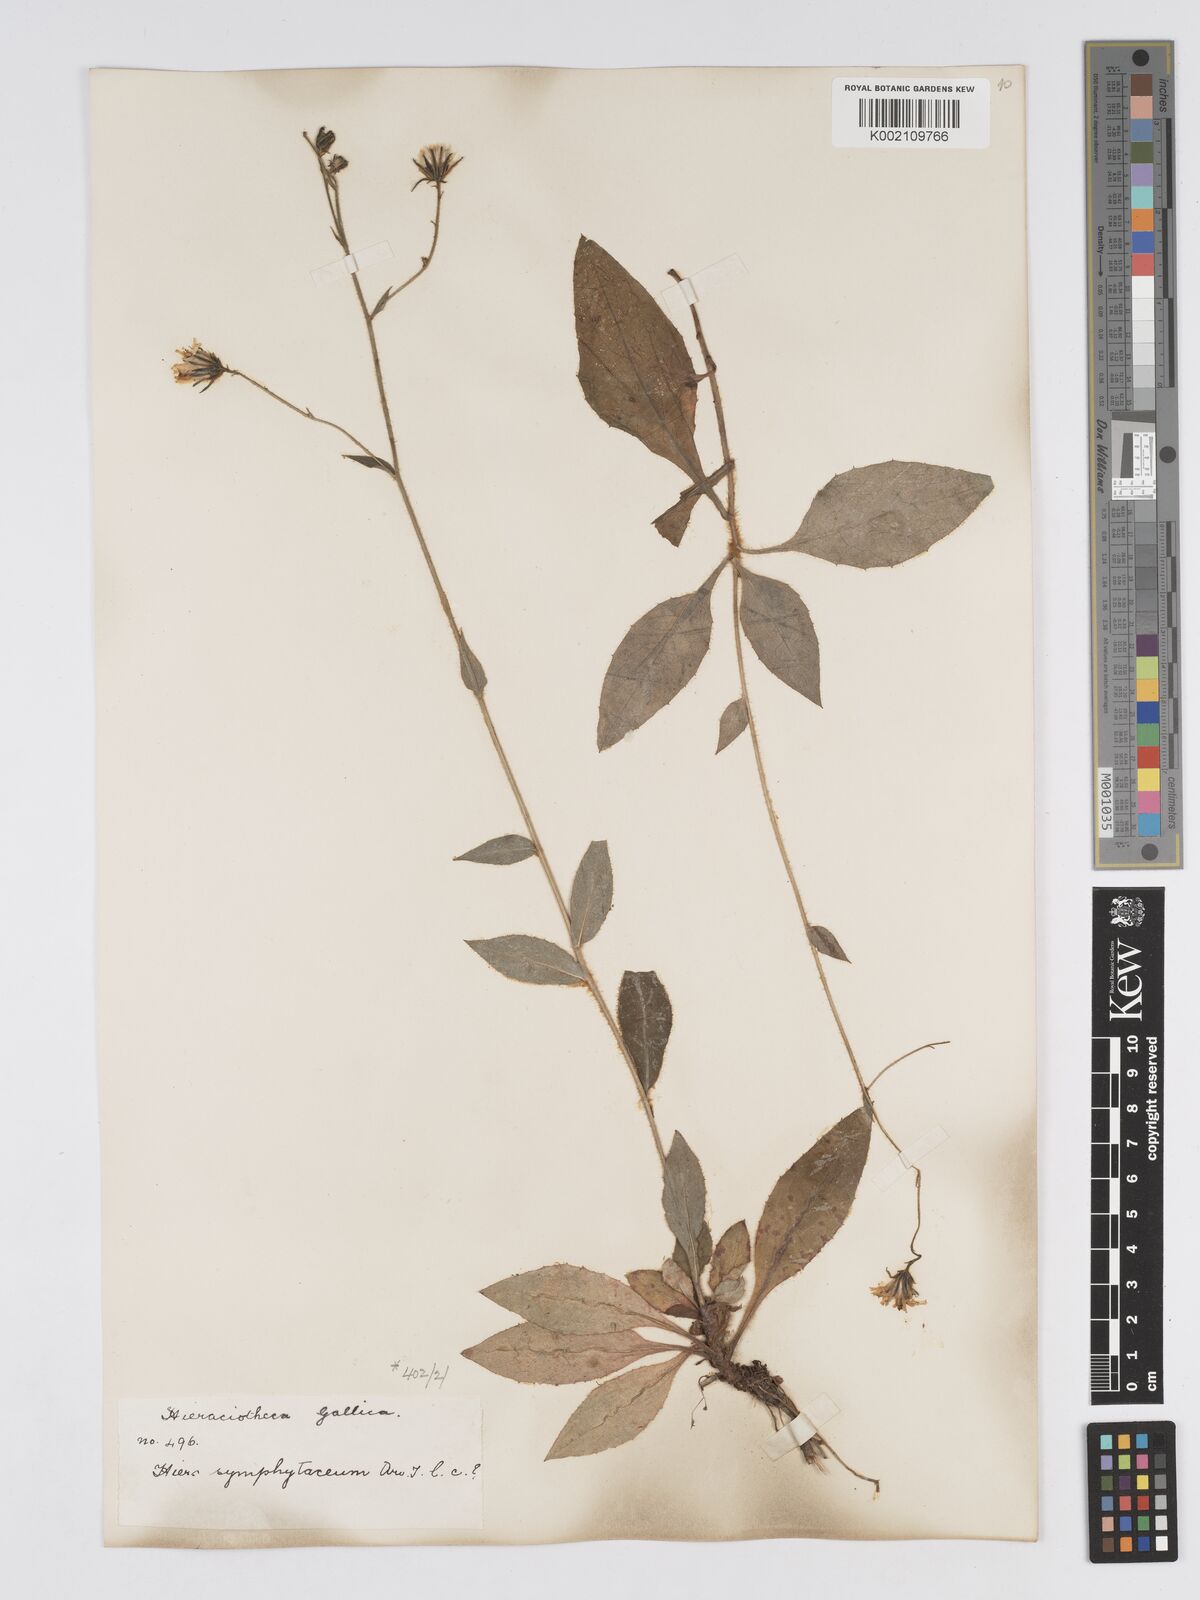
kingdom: Plantae
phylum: Tracheophyta
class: Magnoliopsida
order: Asterales
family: Asteraceae
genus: Hieracium
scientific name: Hieracium symphytaceum
